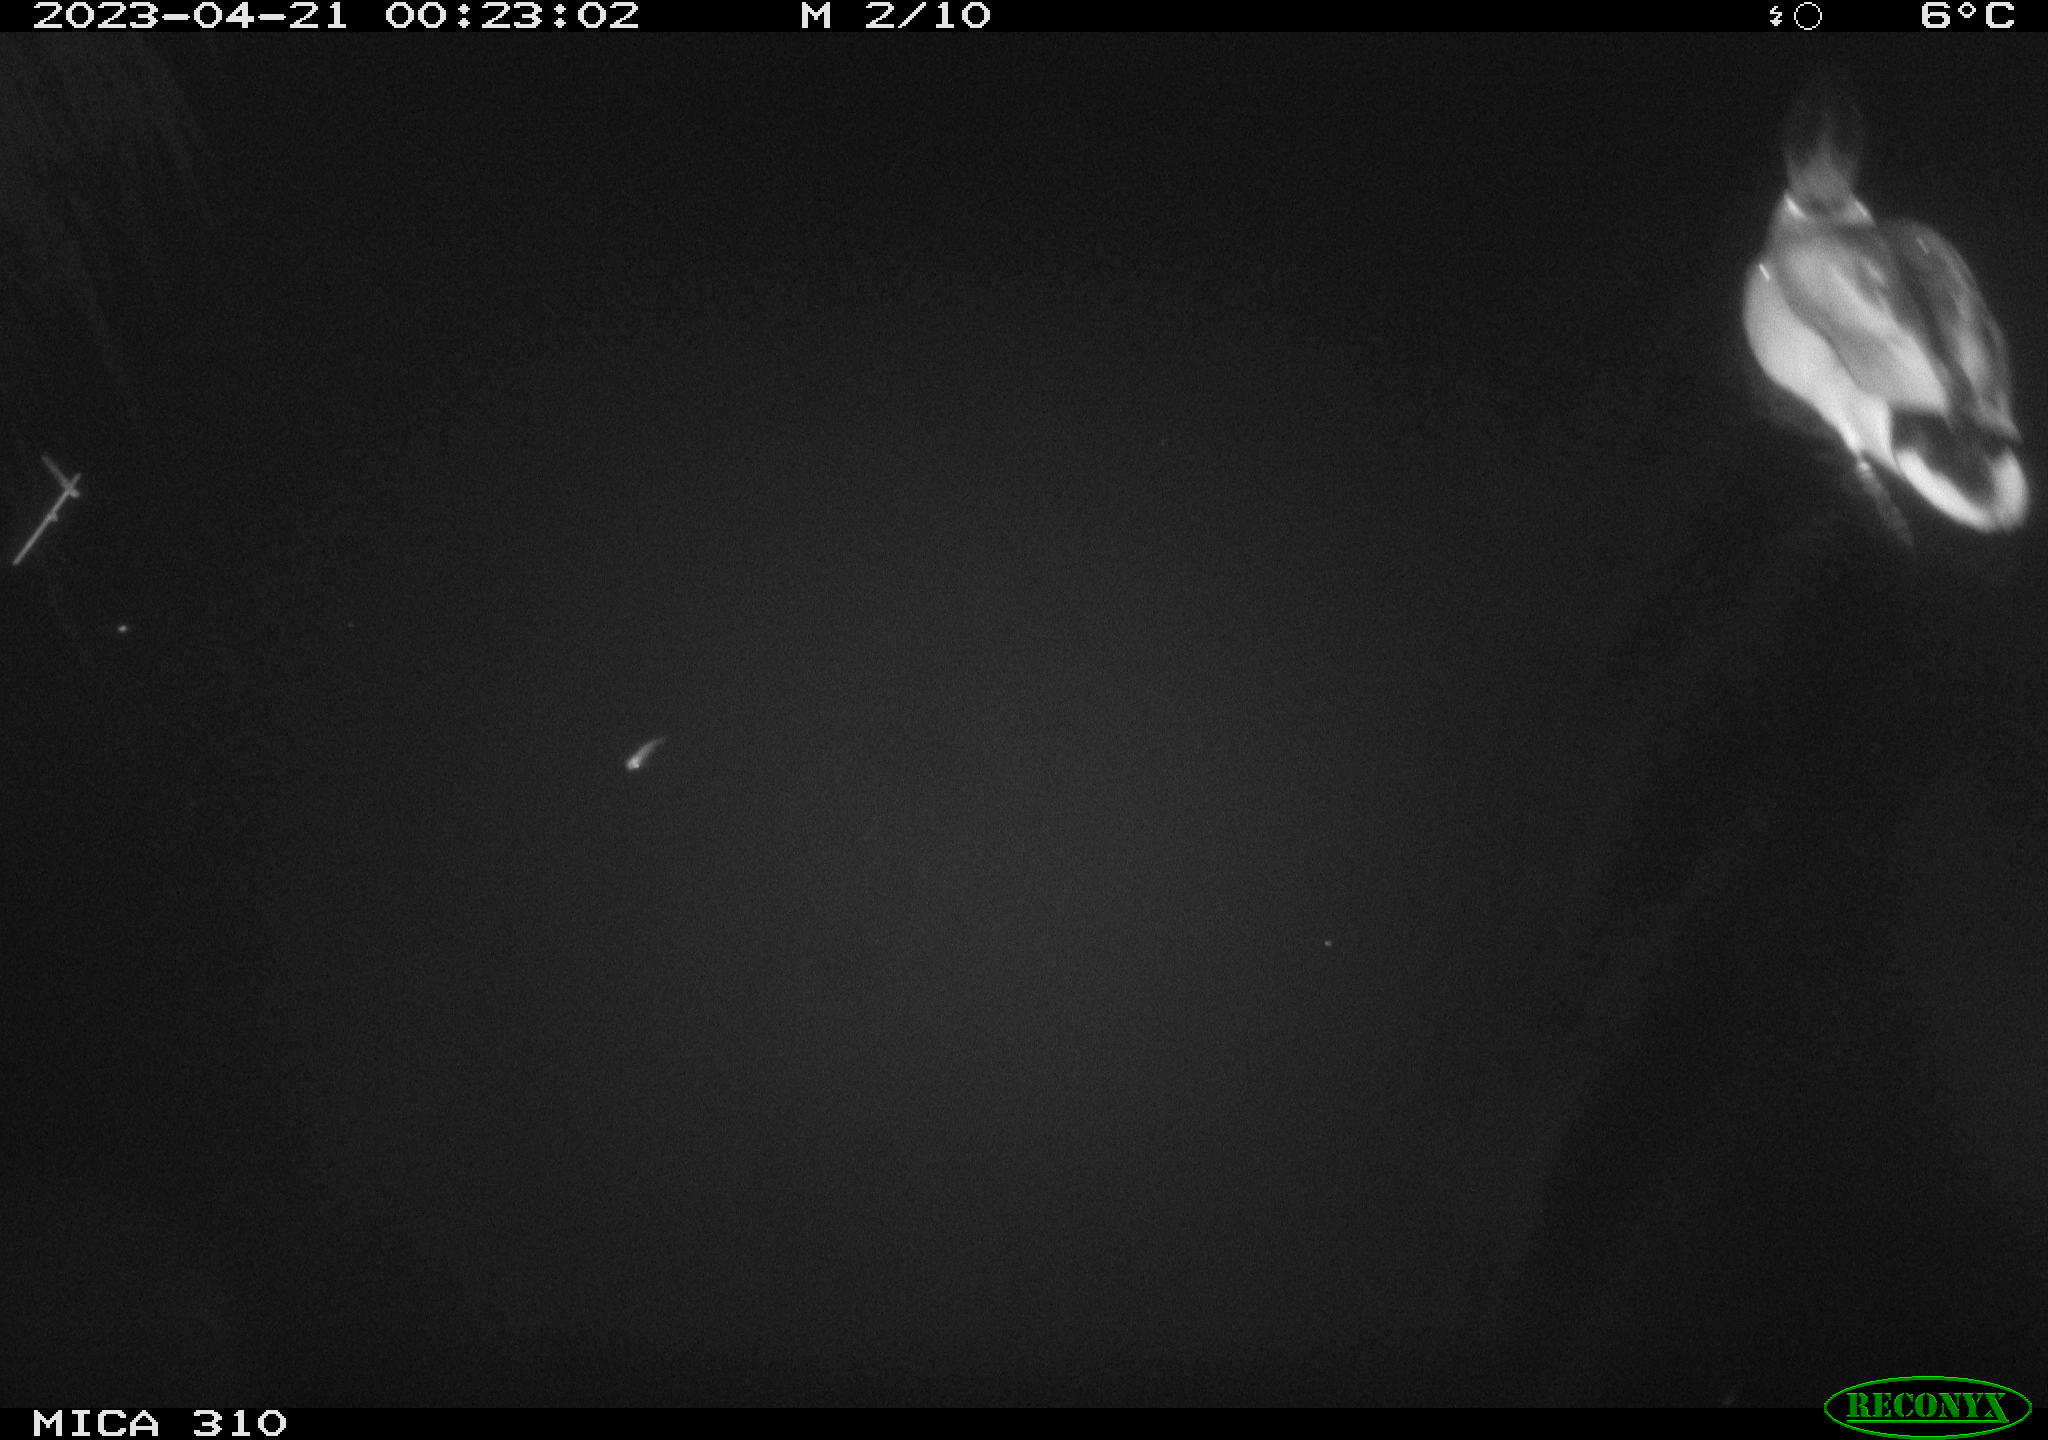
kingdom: Animalia
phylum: Chordata
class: Aves
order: Anseriformes
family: Anatidae
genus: Anas
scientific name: Anas
